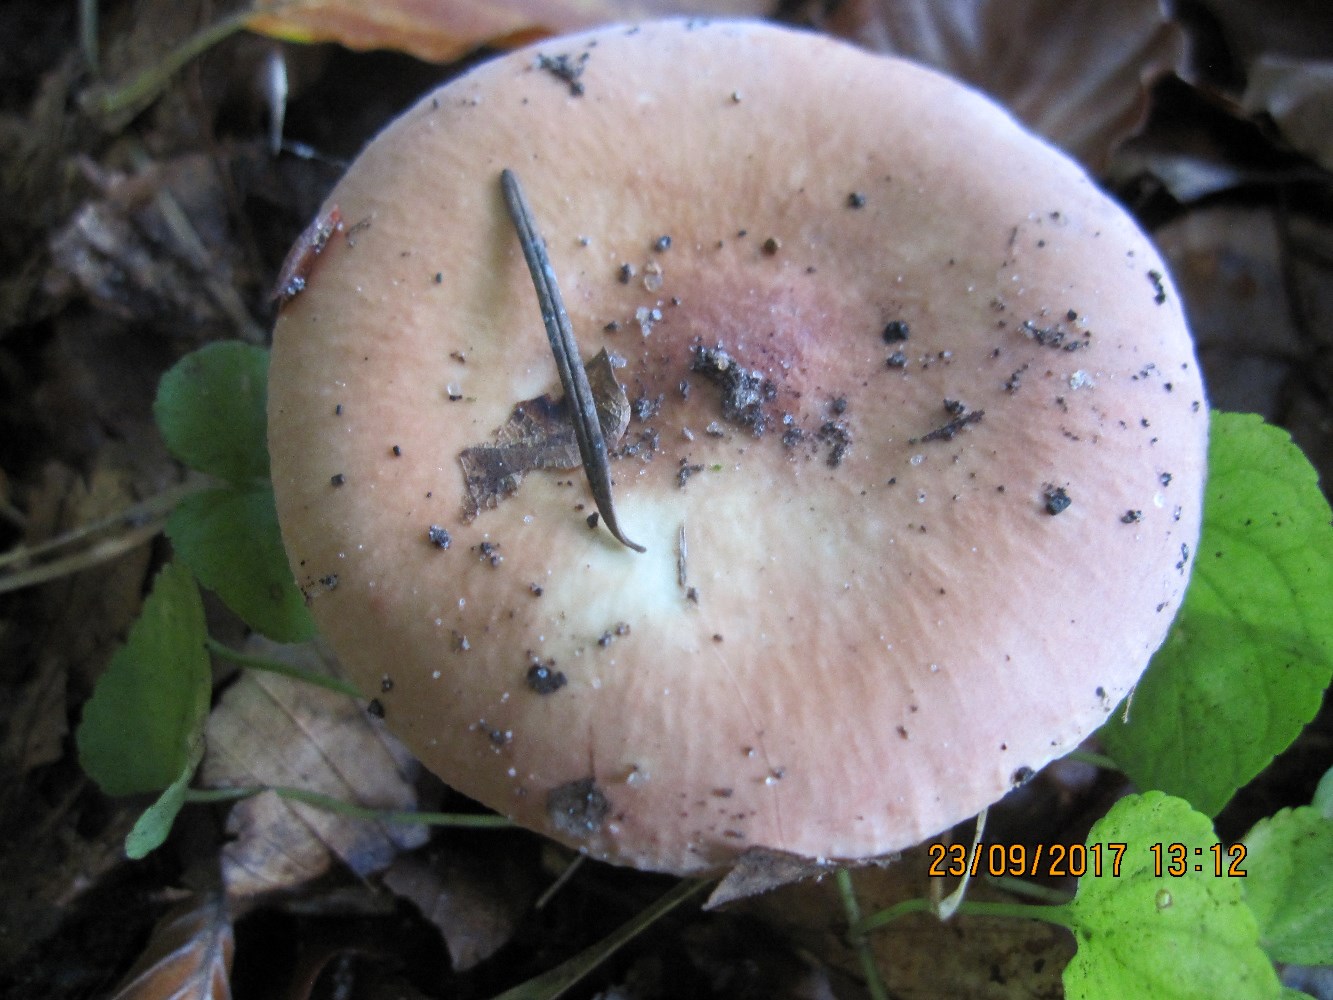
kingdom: Fungi
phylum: Basidiomycota
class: Agaricomycetes
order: Russulales
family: Russulaceae
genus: Russula
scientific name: Russula aurora
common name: rosa skørhat
